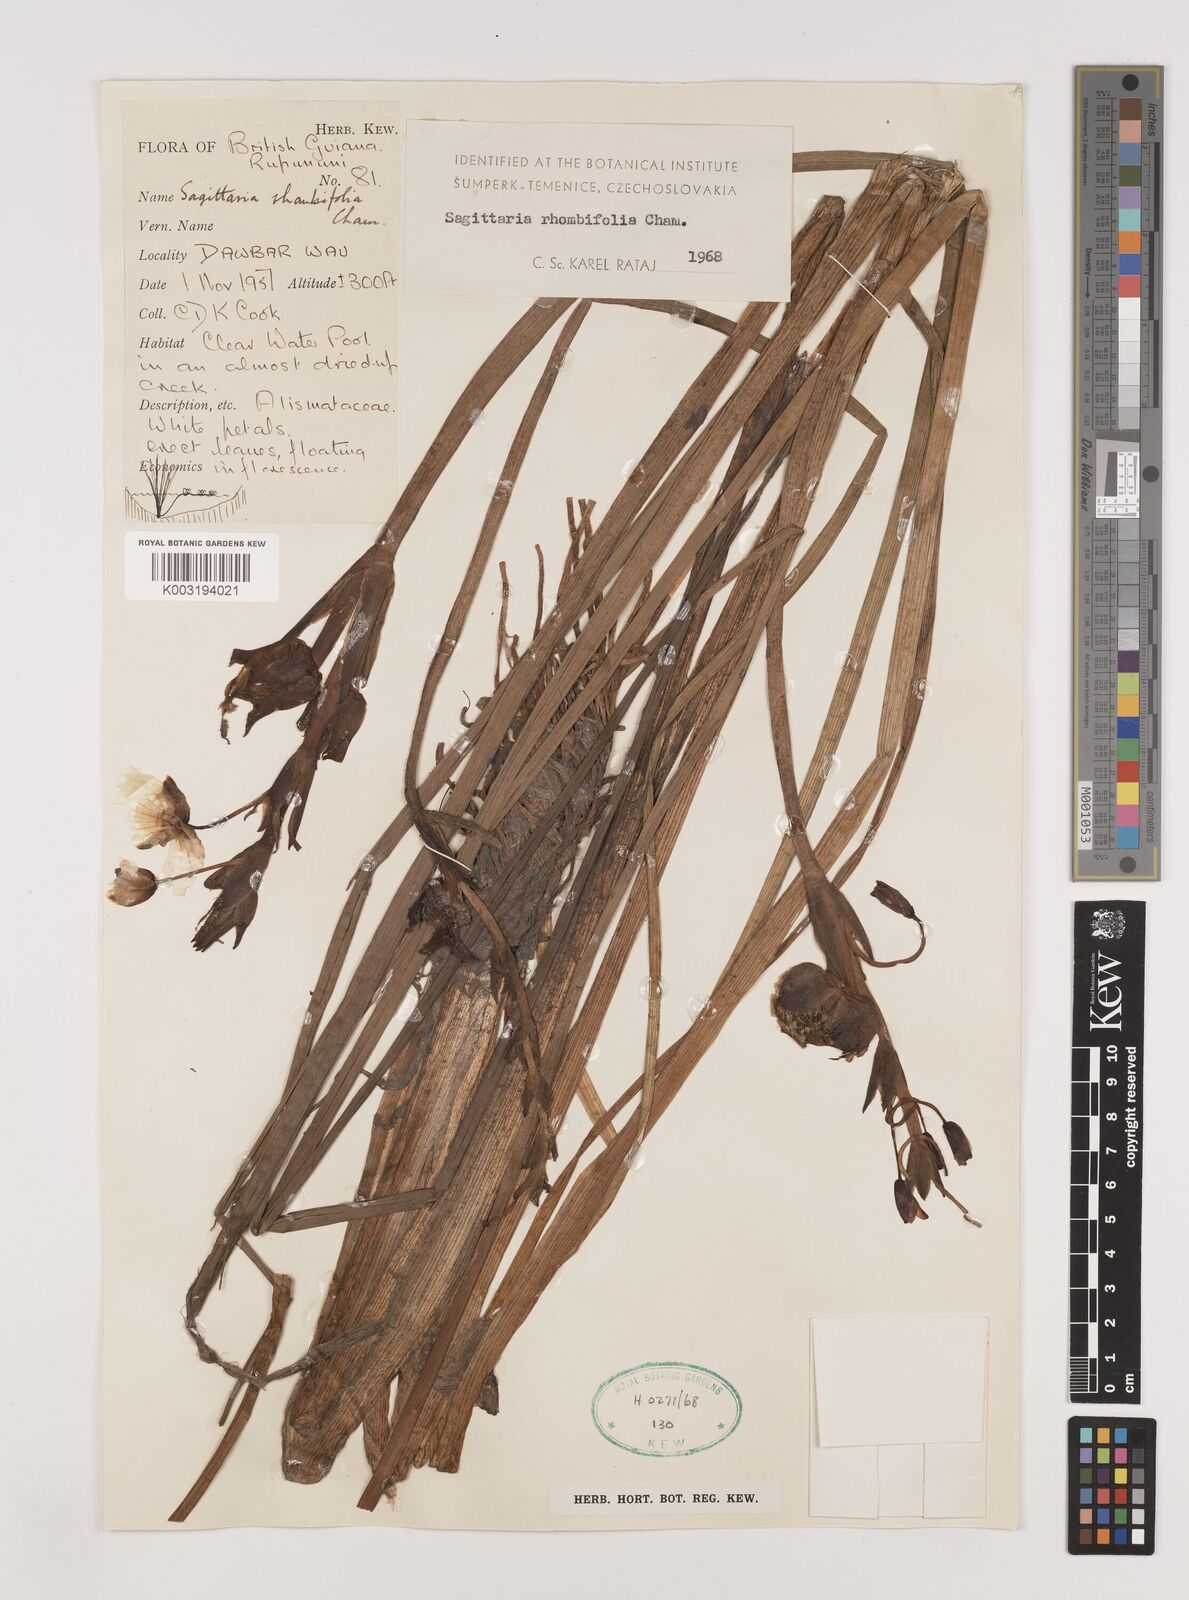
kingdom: Plantae
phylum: Tracheophyta
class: Liliopsida
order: Alismatales
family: Alismataceae
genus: Sagittaria
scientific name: Sagittaria rhombifolia
